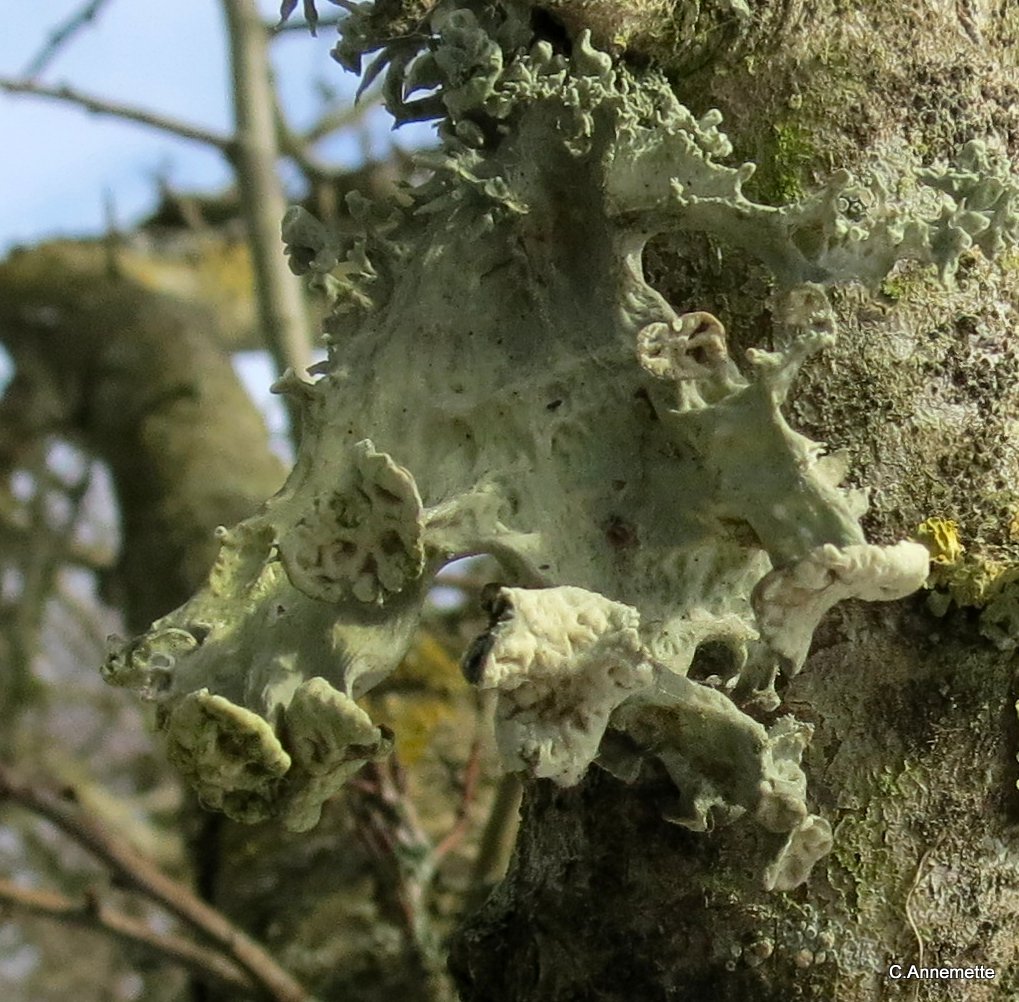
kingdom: Fungi
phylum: Ascomycota
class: Lecanoromycetes
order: Lecanorales
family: Ramalinaceae
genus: Ramalina
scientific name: Ramalina fraxinea
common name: stor grenlav
